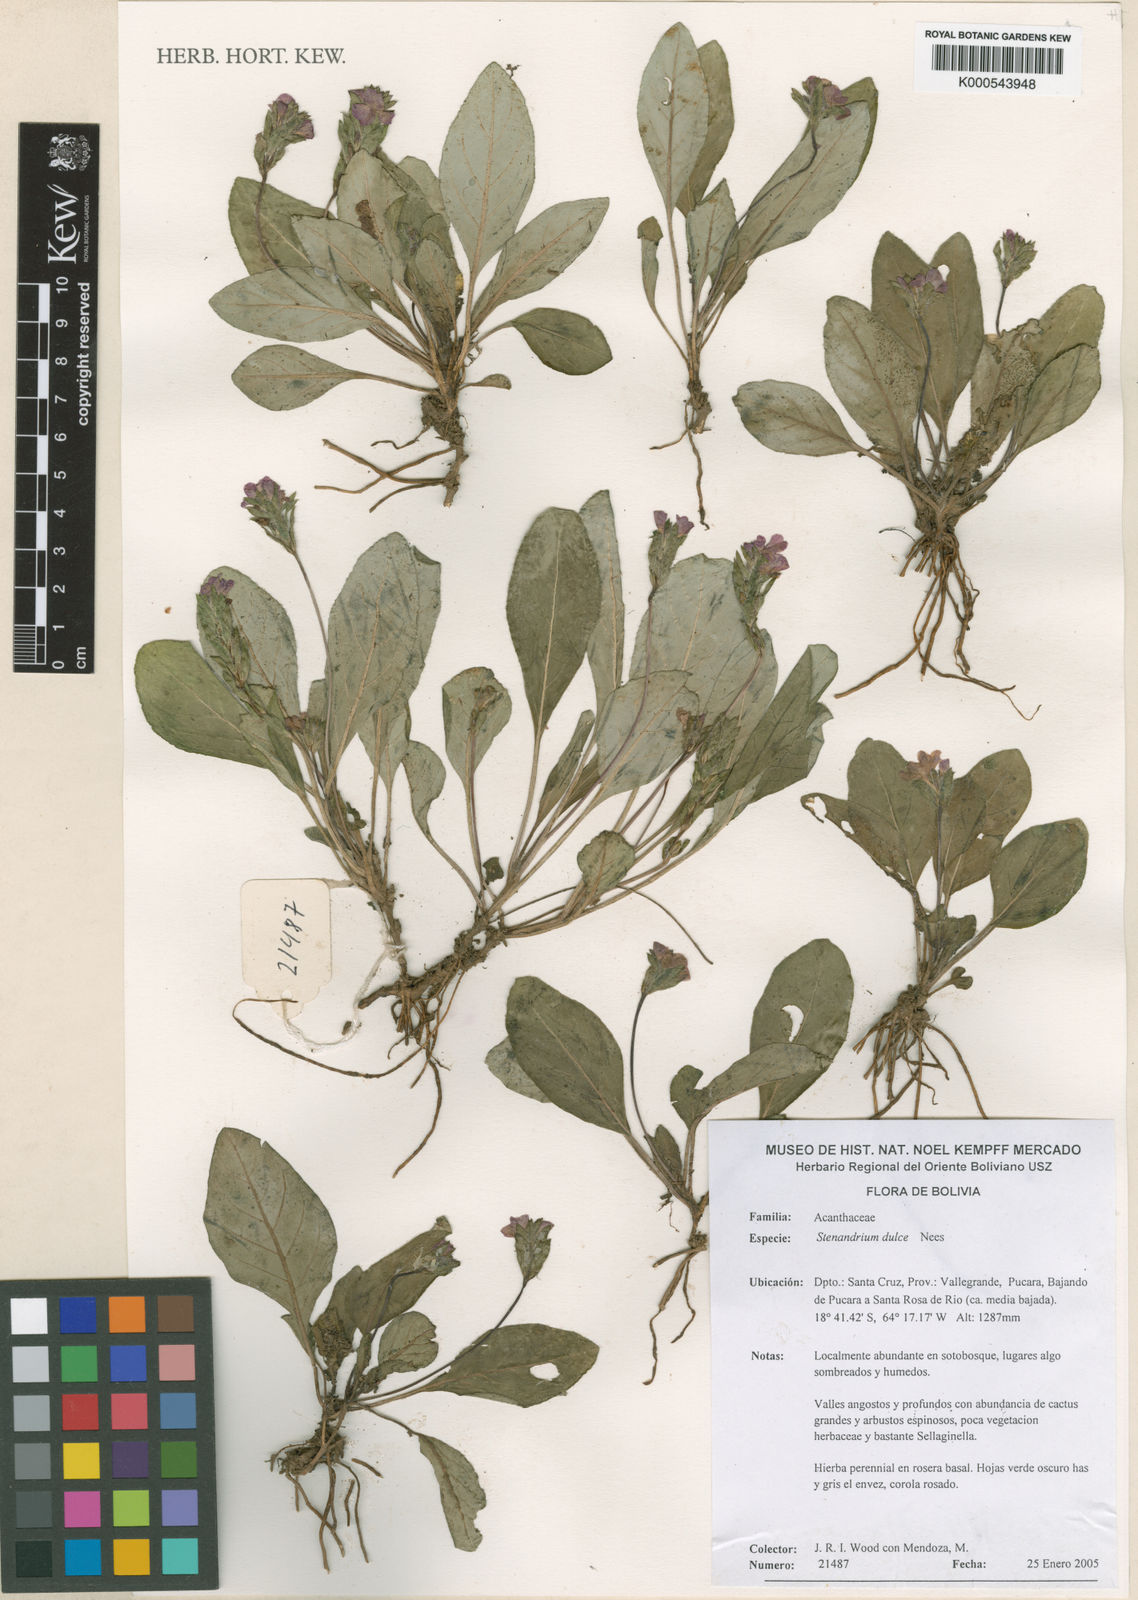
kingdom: Plantae
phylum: Tracheophyta
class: Magnoliopsida
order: Lamiales
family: Acanthaceae
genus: Stenandrium
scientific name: Stenandrium dulce
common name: Pinklet
